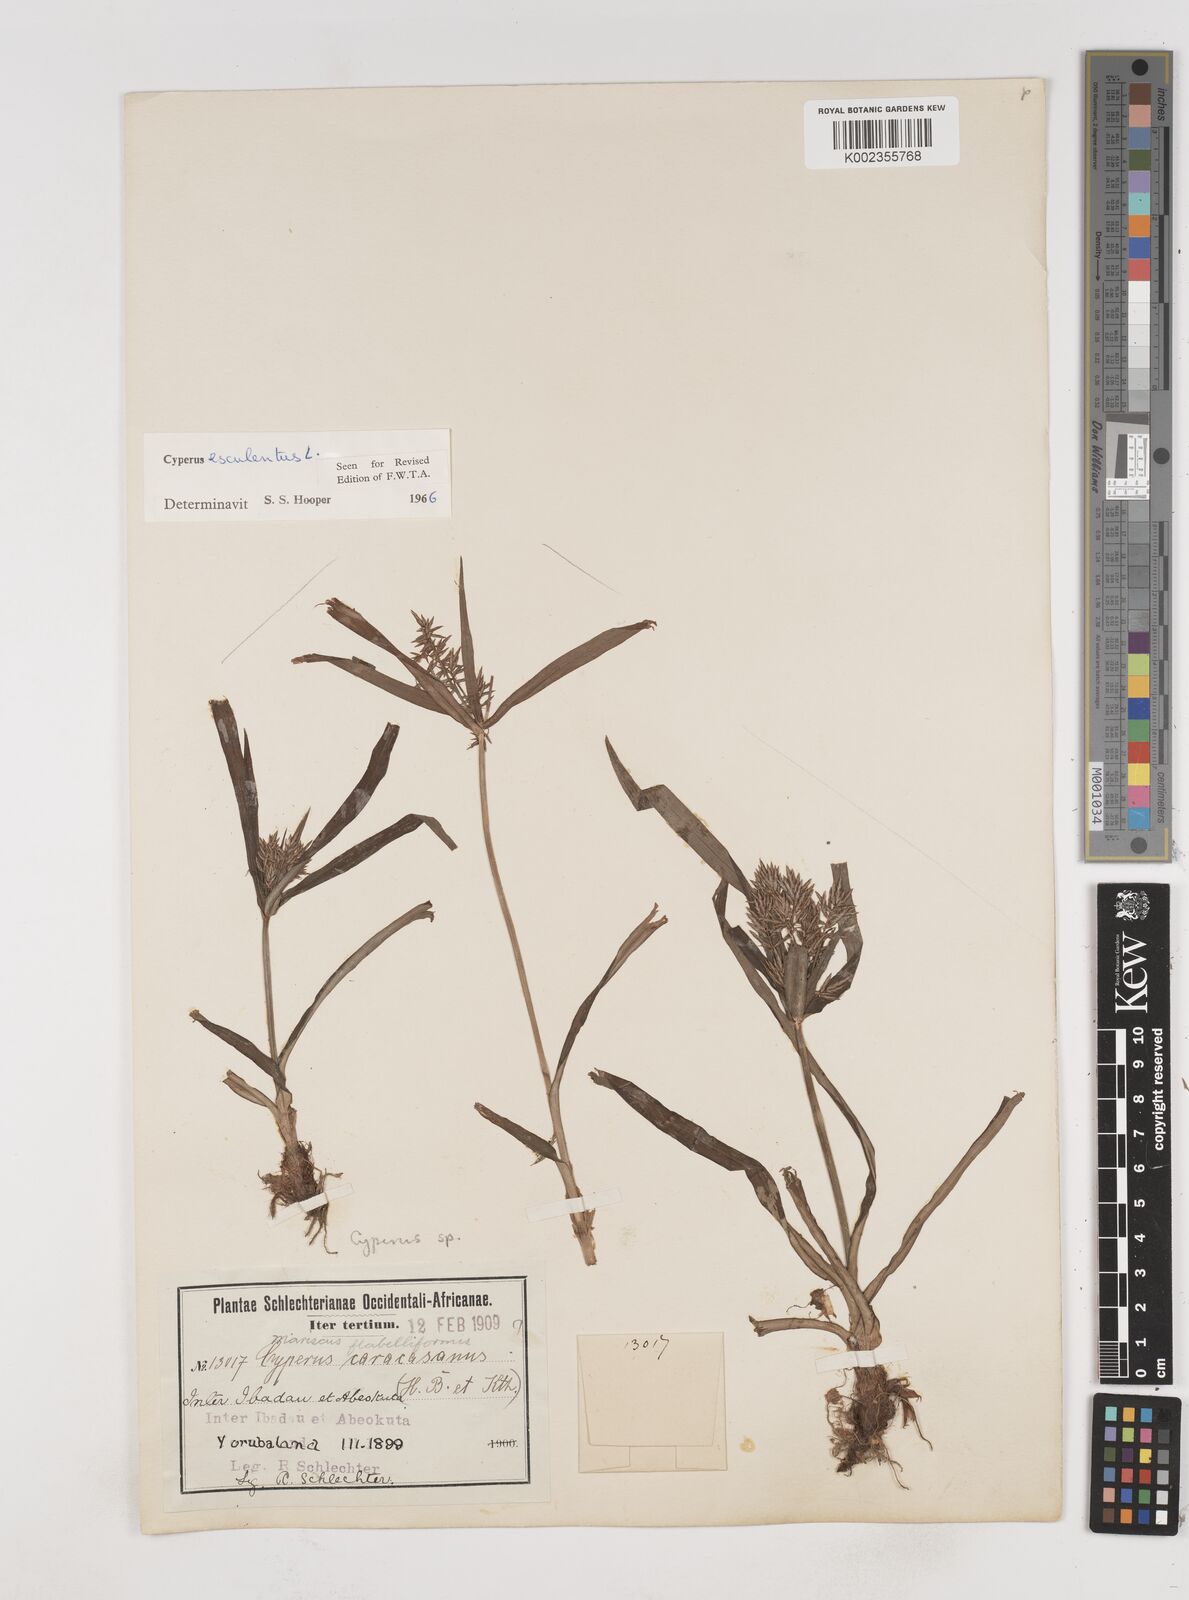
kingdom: Plantae
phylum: Tracheophyta
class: Liliopsida
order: Poales
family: Cyperaceae
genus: Cyperus
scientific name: Cyperus esculentus
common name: Yellow nutsedge
